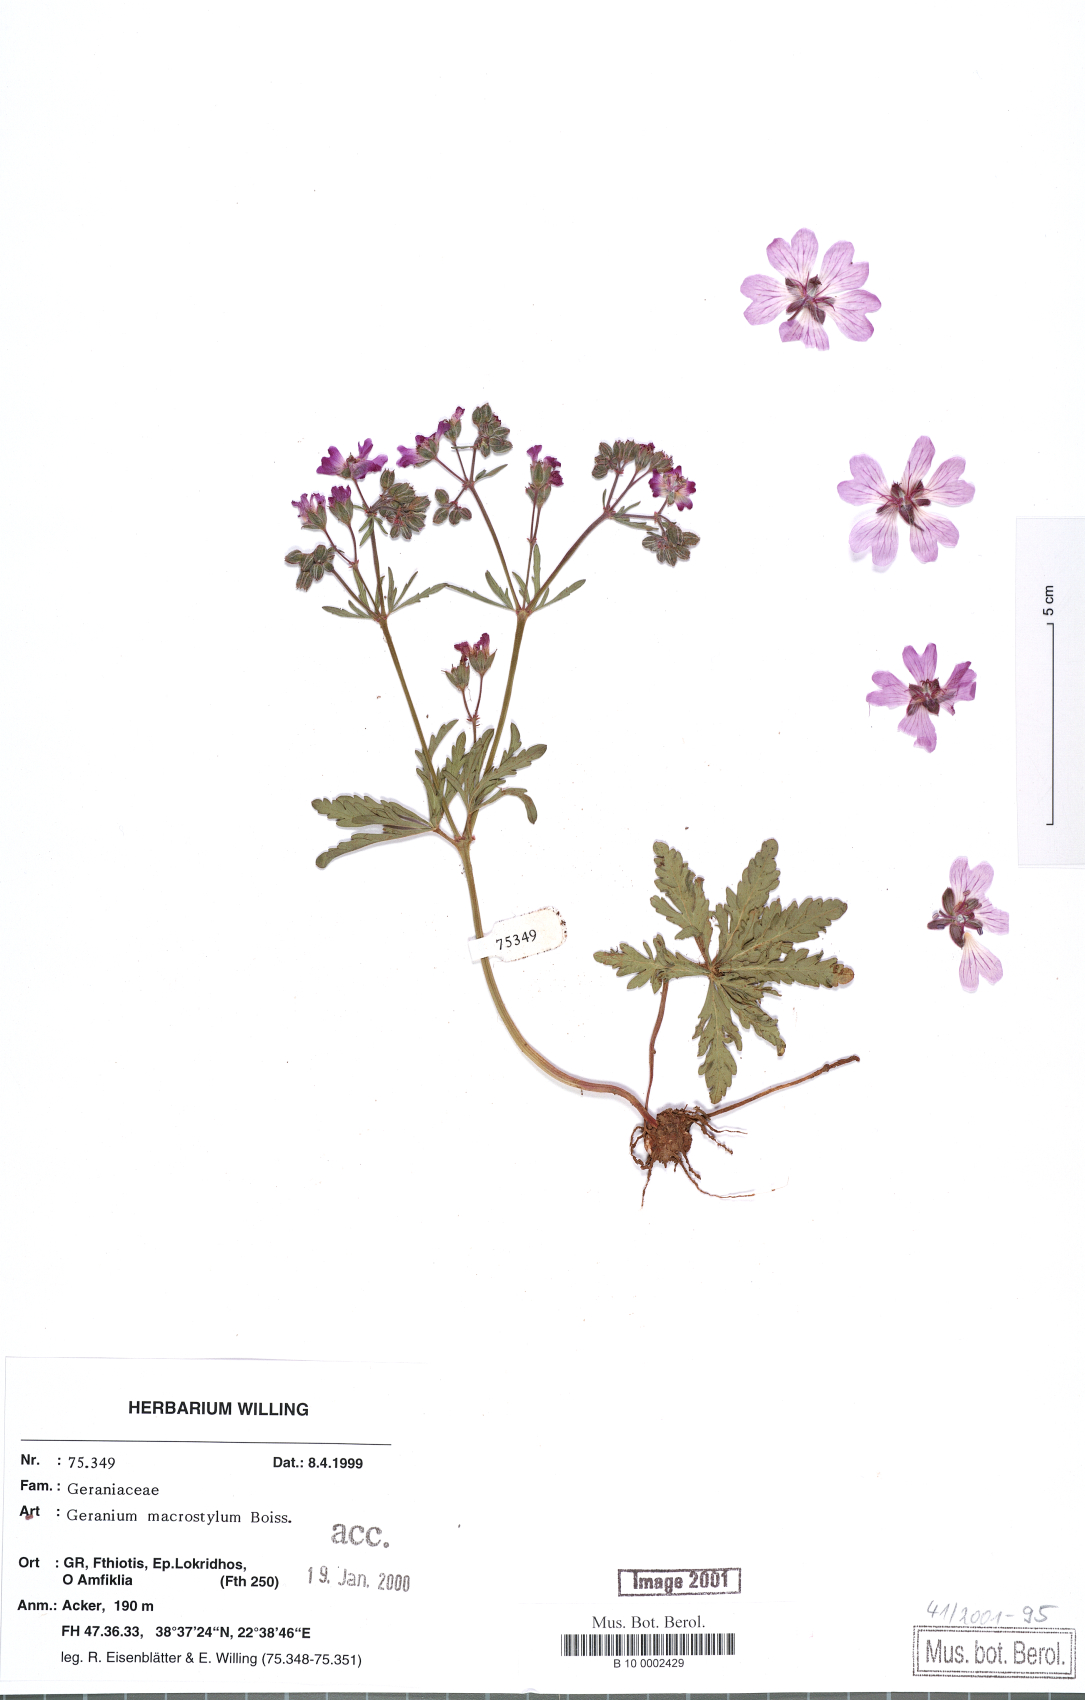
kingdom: Plantae
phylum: Tracheophyta
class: Magnoliopsida
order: Geraniales
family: Geraniaceae
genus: Geranium
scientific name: Geranium macrostylum
